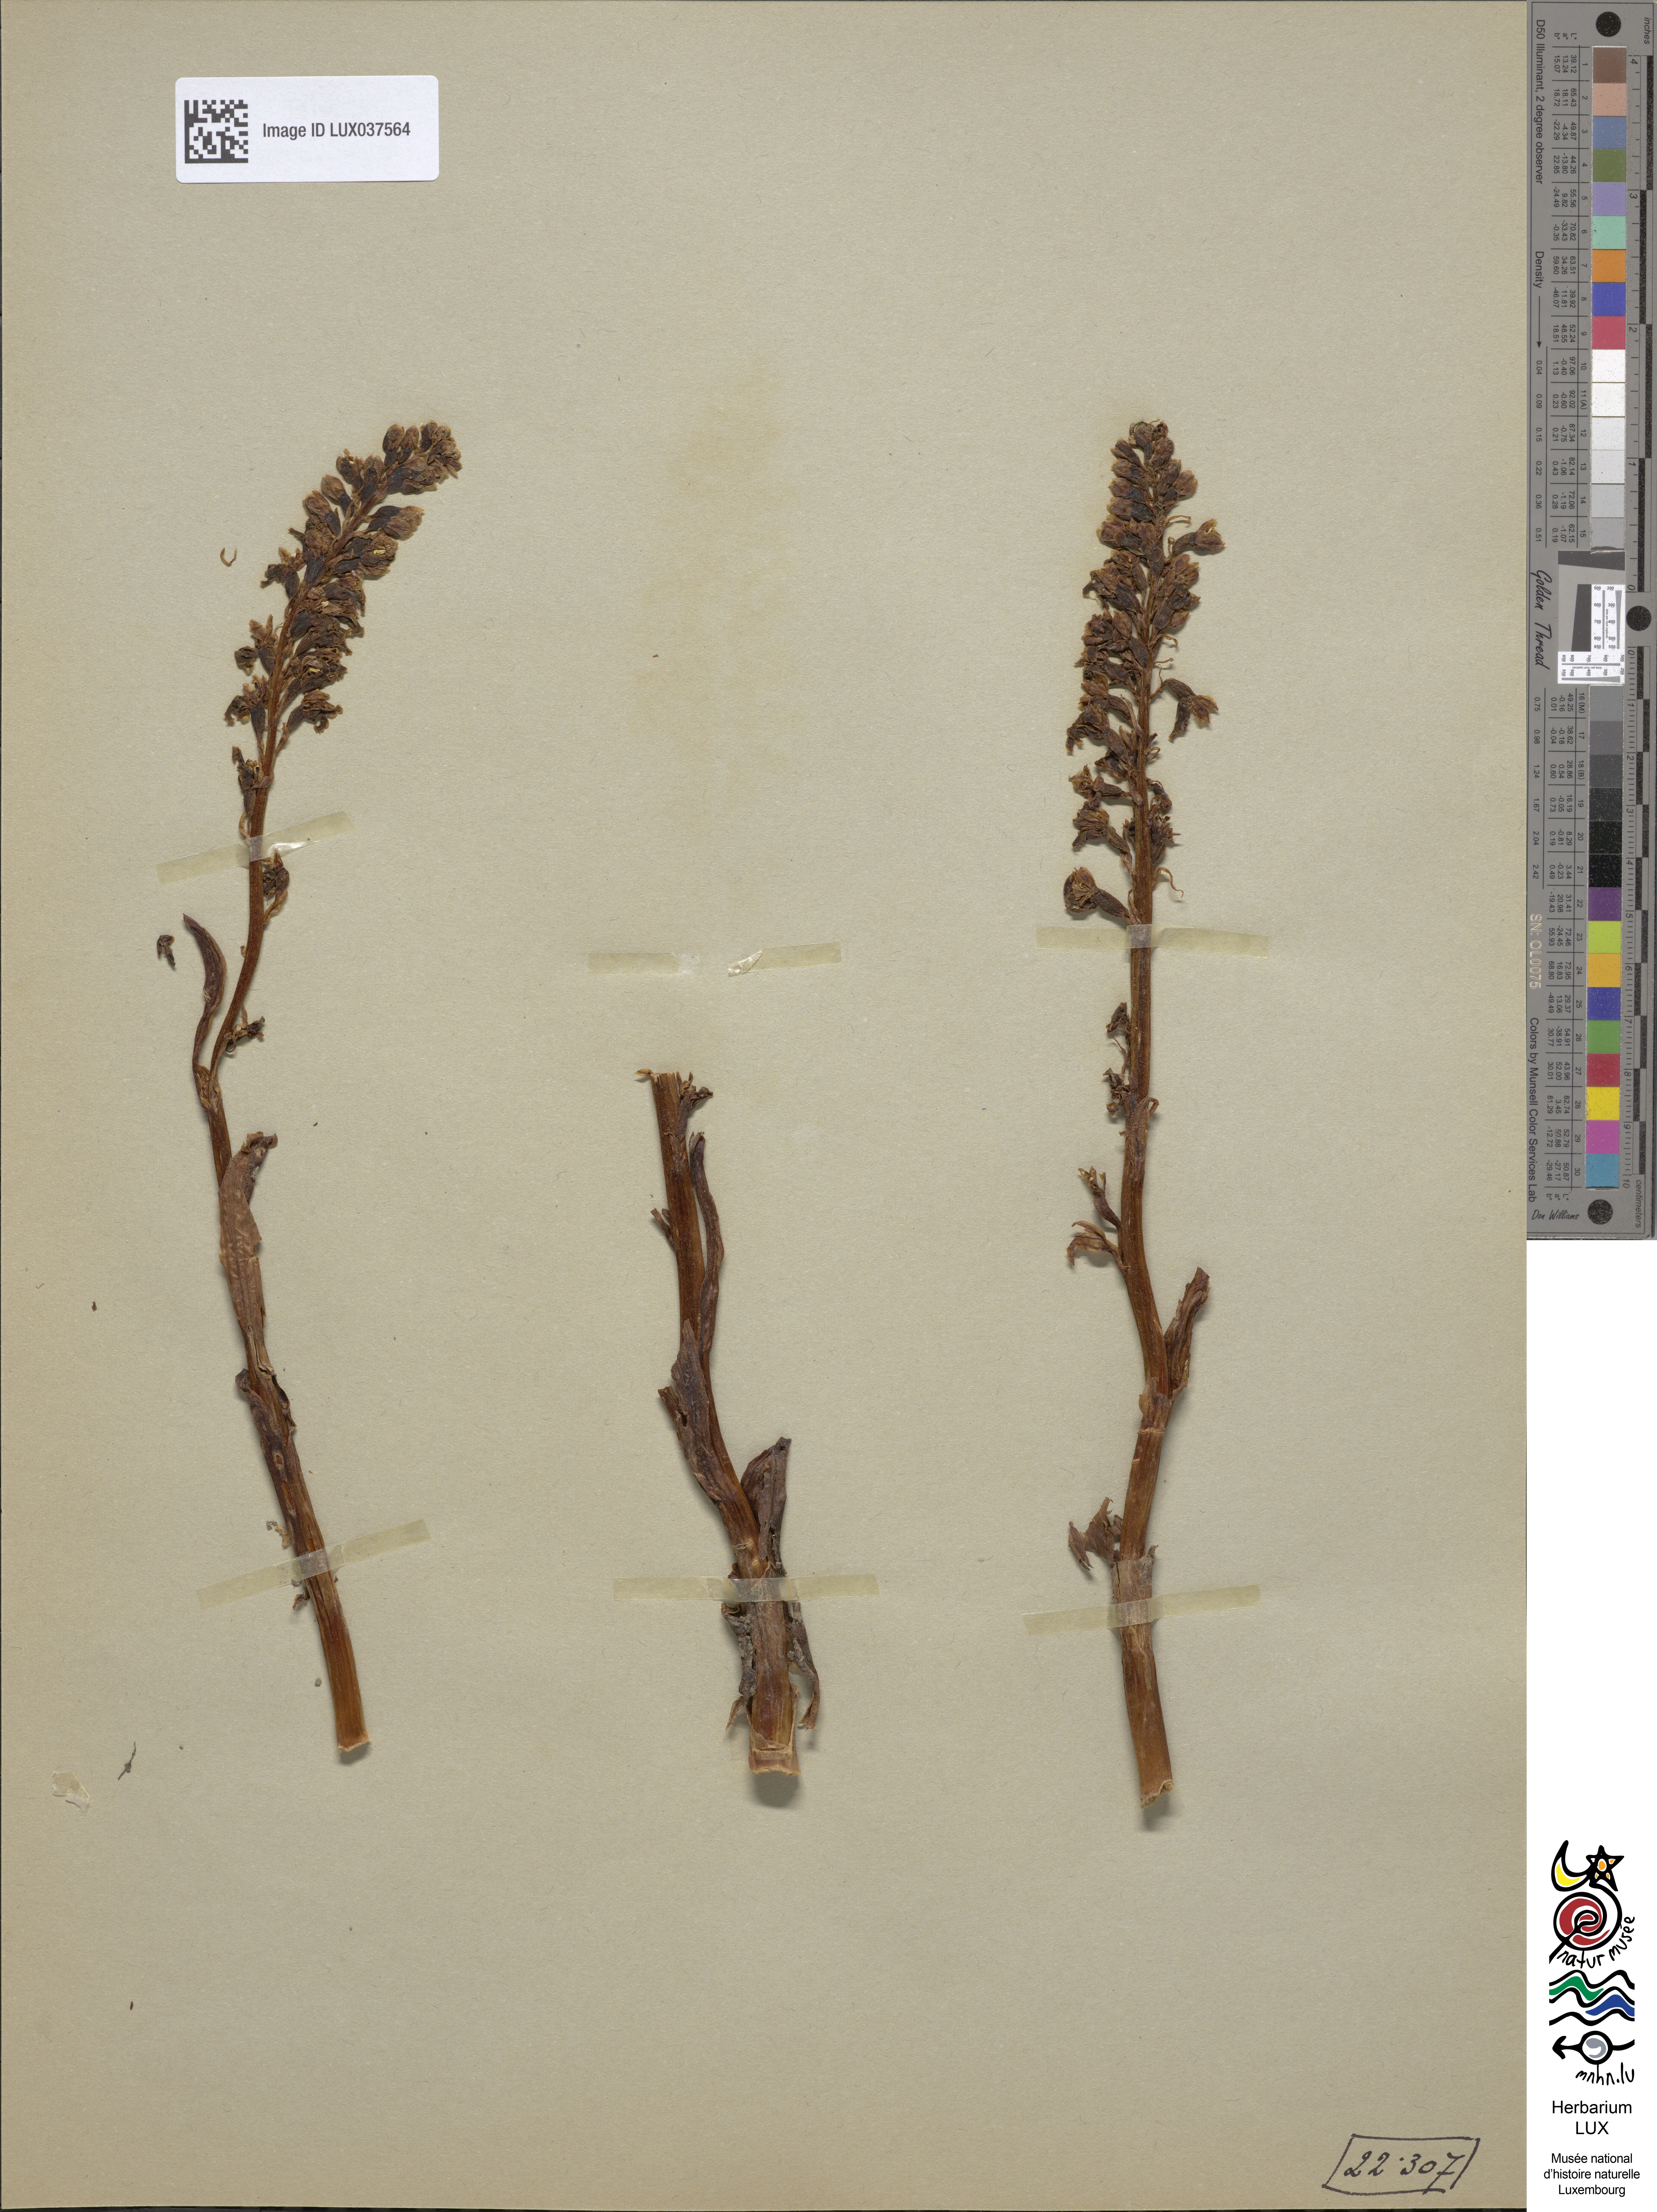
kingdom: Plantae
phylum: Tracheophyta
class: Liliopsida
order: Asparagales
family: Orchidaceae
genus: Neottia
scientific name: Neottia nidus-avis
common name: Bird's-nest orchid
